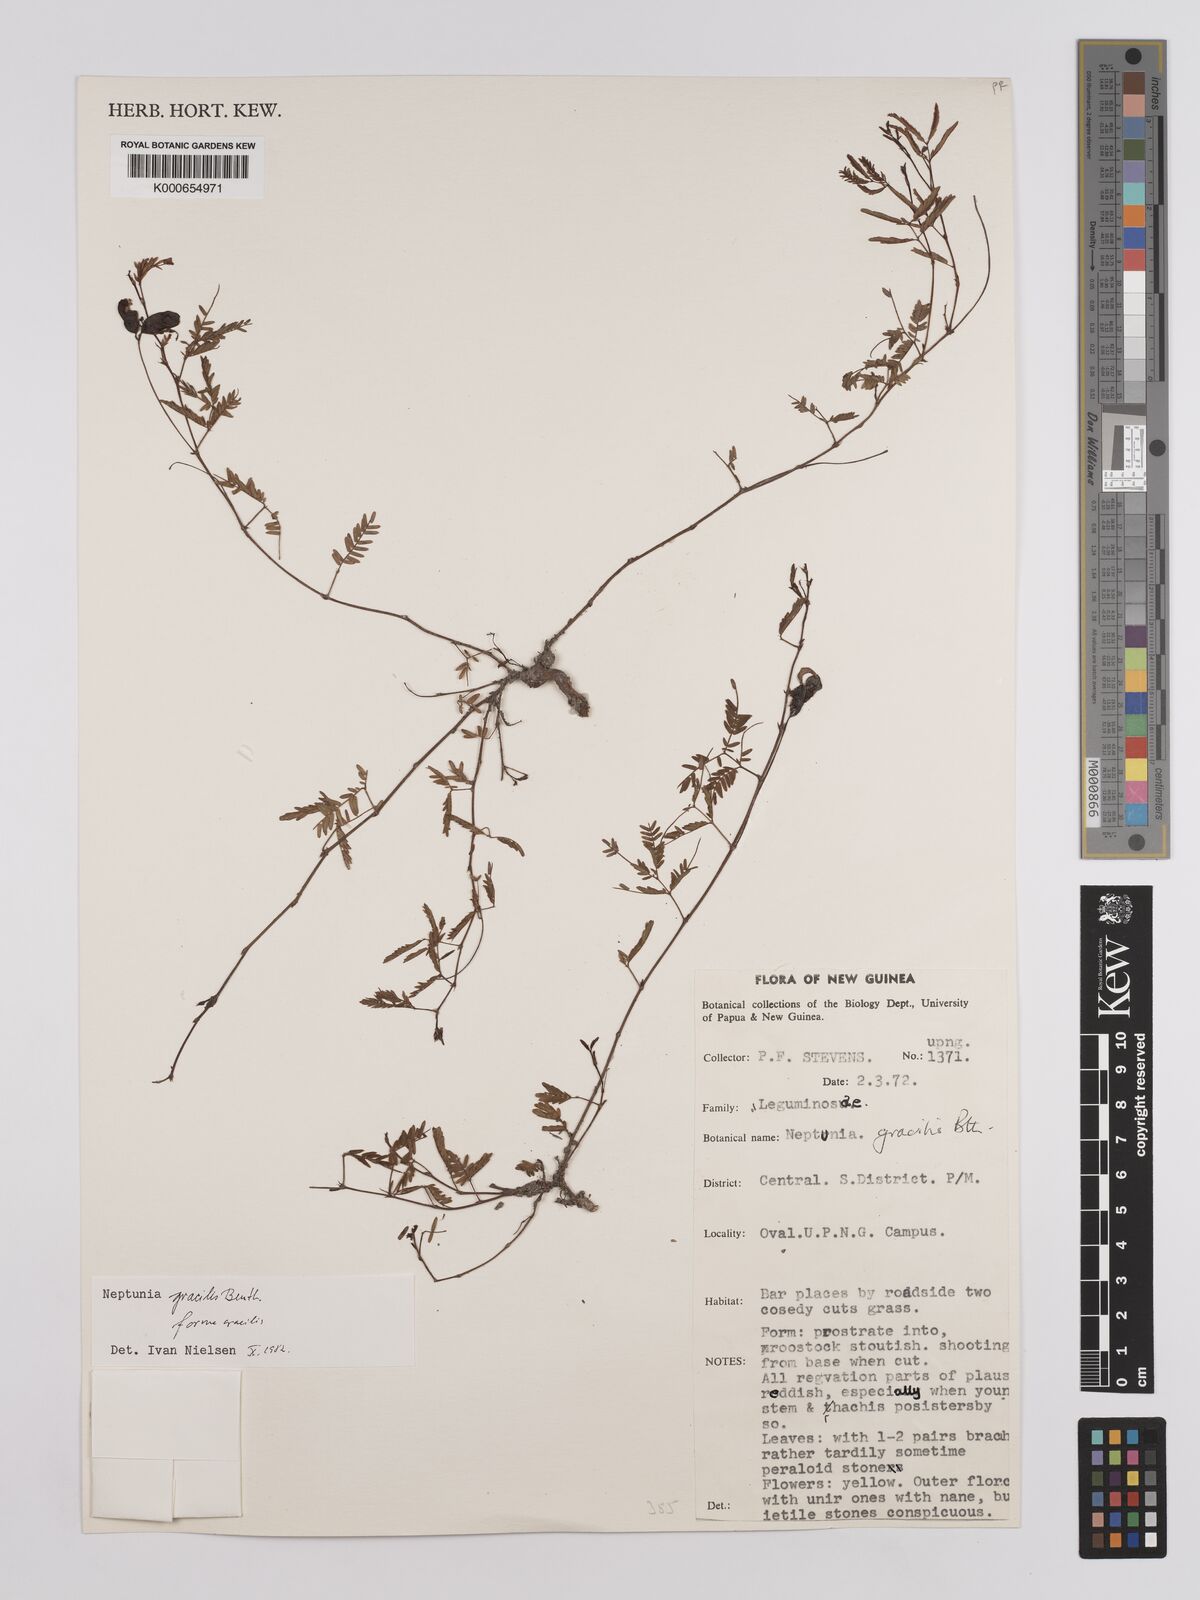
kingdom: Plantae
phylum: Tracheophyta
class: Magnoliopsida
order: Fabales
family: Fabaceae
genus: Neptunia
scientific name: Neptunia gracilis
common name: Sensitive-plant
